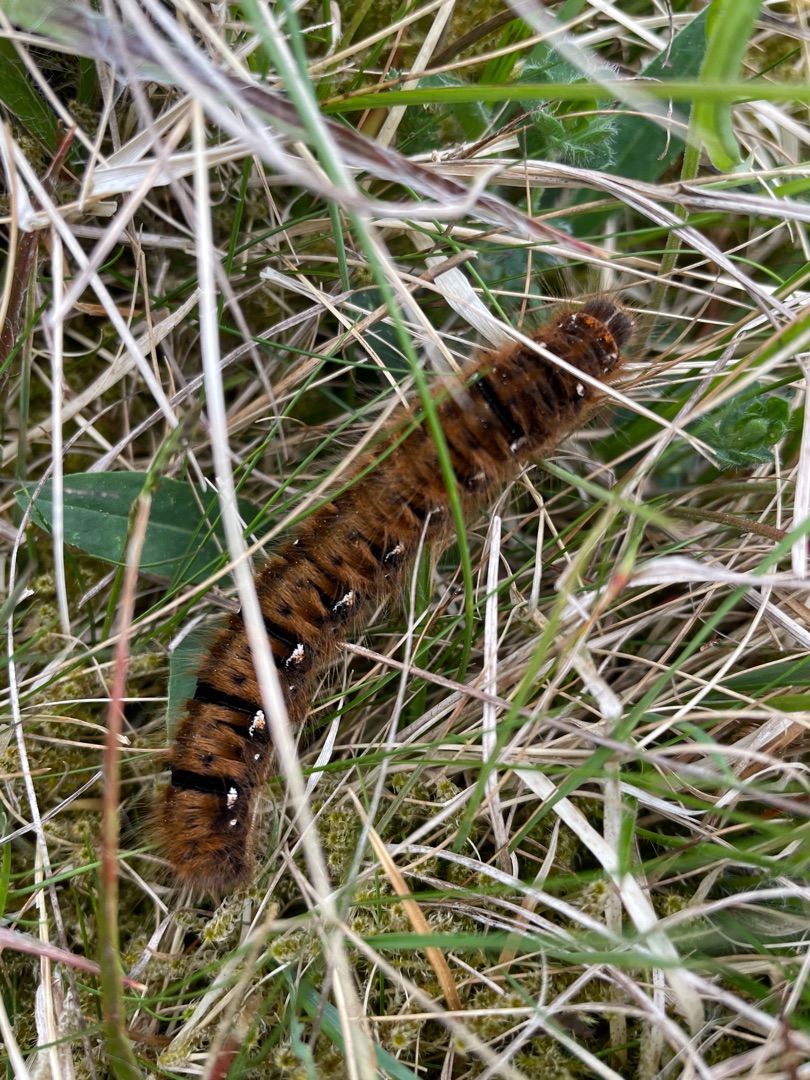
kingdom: Animalia
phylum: Arthropoda
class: Insecta
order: Lepidoptera
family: Lasiocampidae
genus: Lasiocampa
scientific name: Lasiocampa quercus
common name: Egespinder
